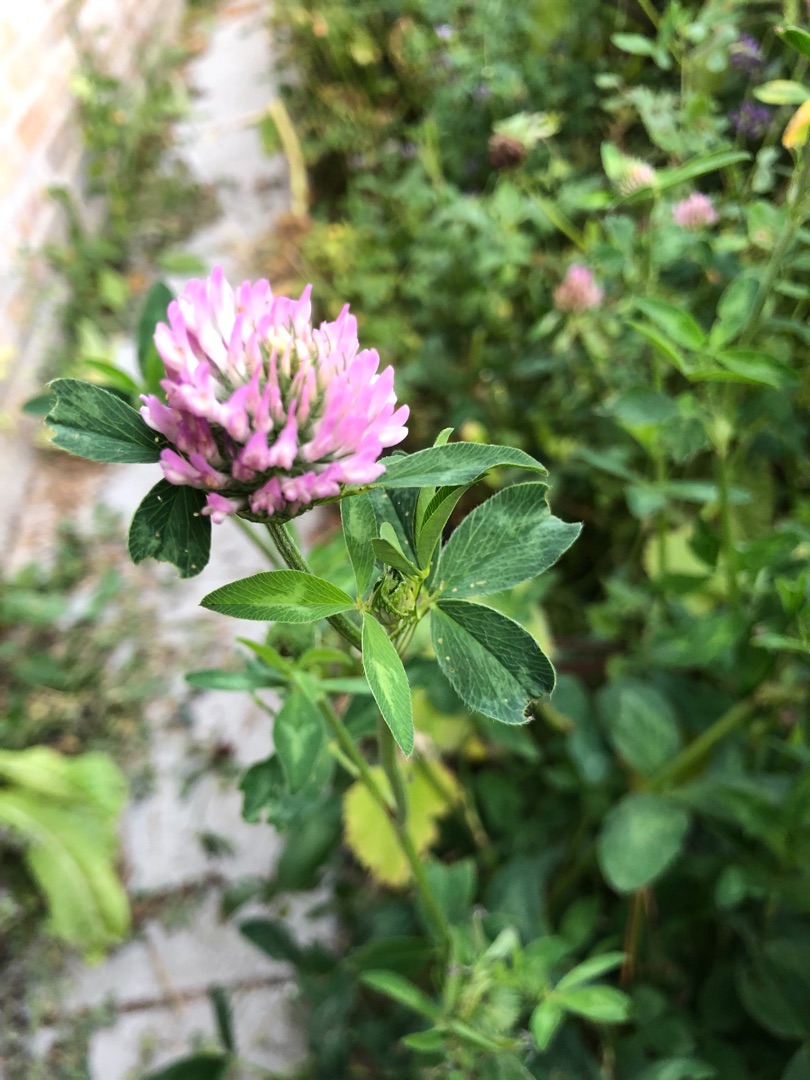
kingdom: Plantae
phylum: Tracheophyta
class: Magnoliopsida
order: Fabales
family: Fabaceae
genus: Trifolium
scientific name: Trifolium pratense
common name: Rød-kløver
